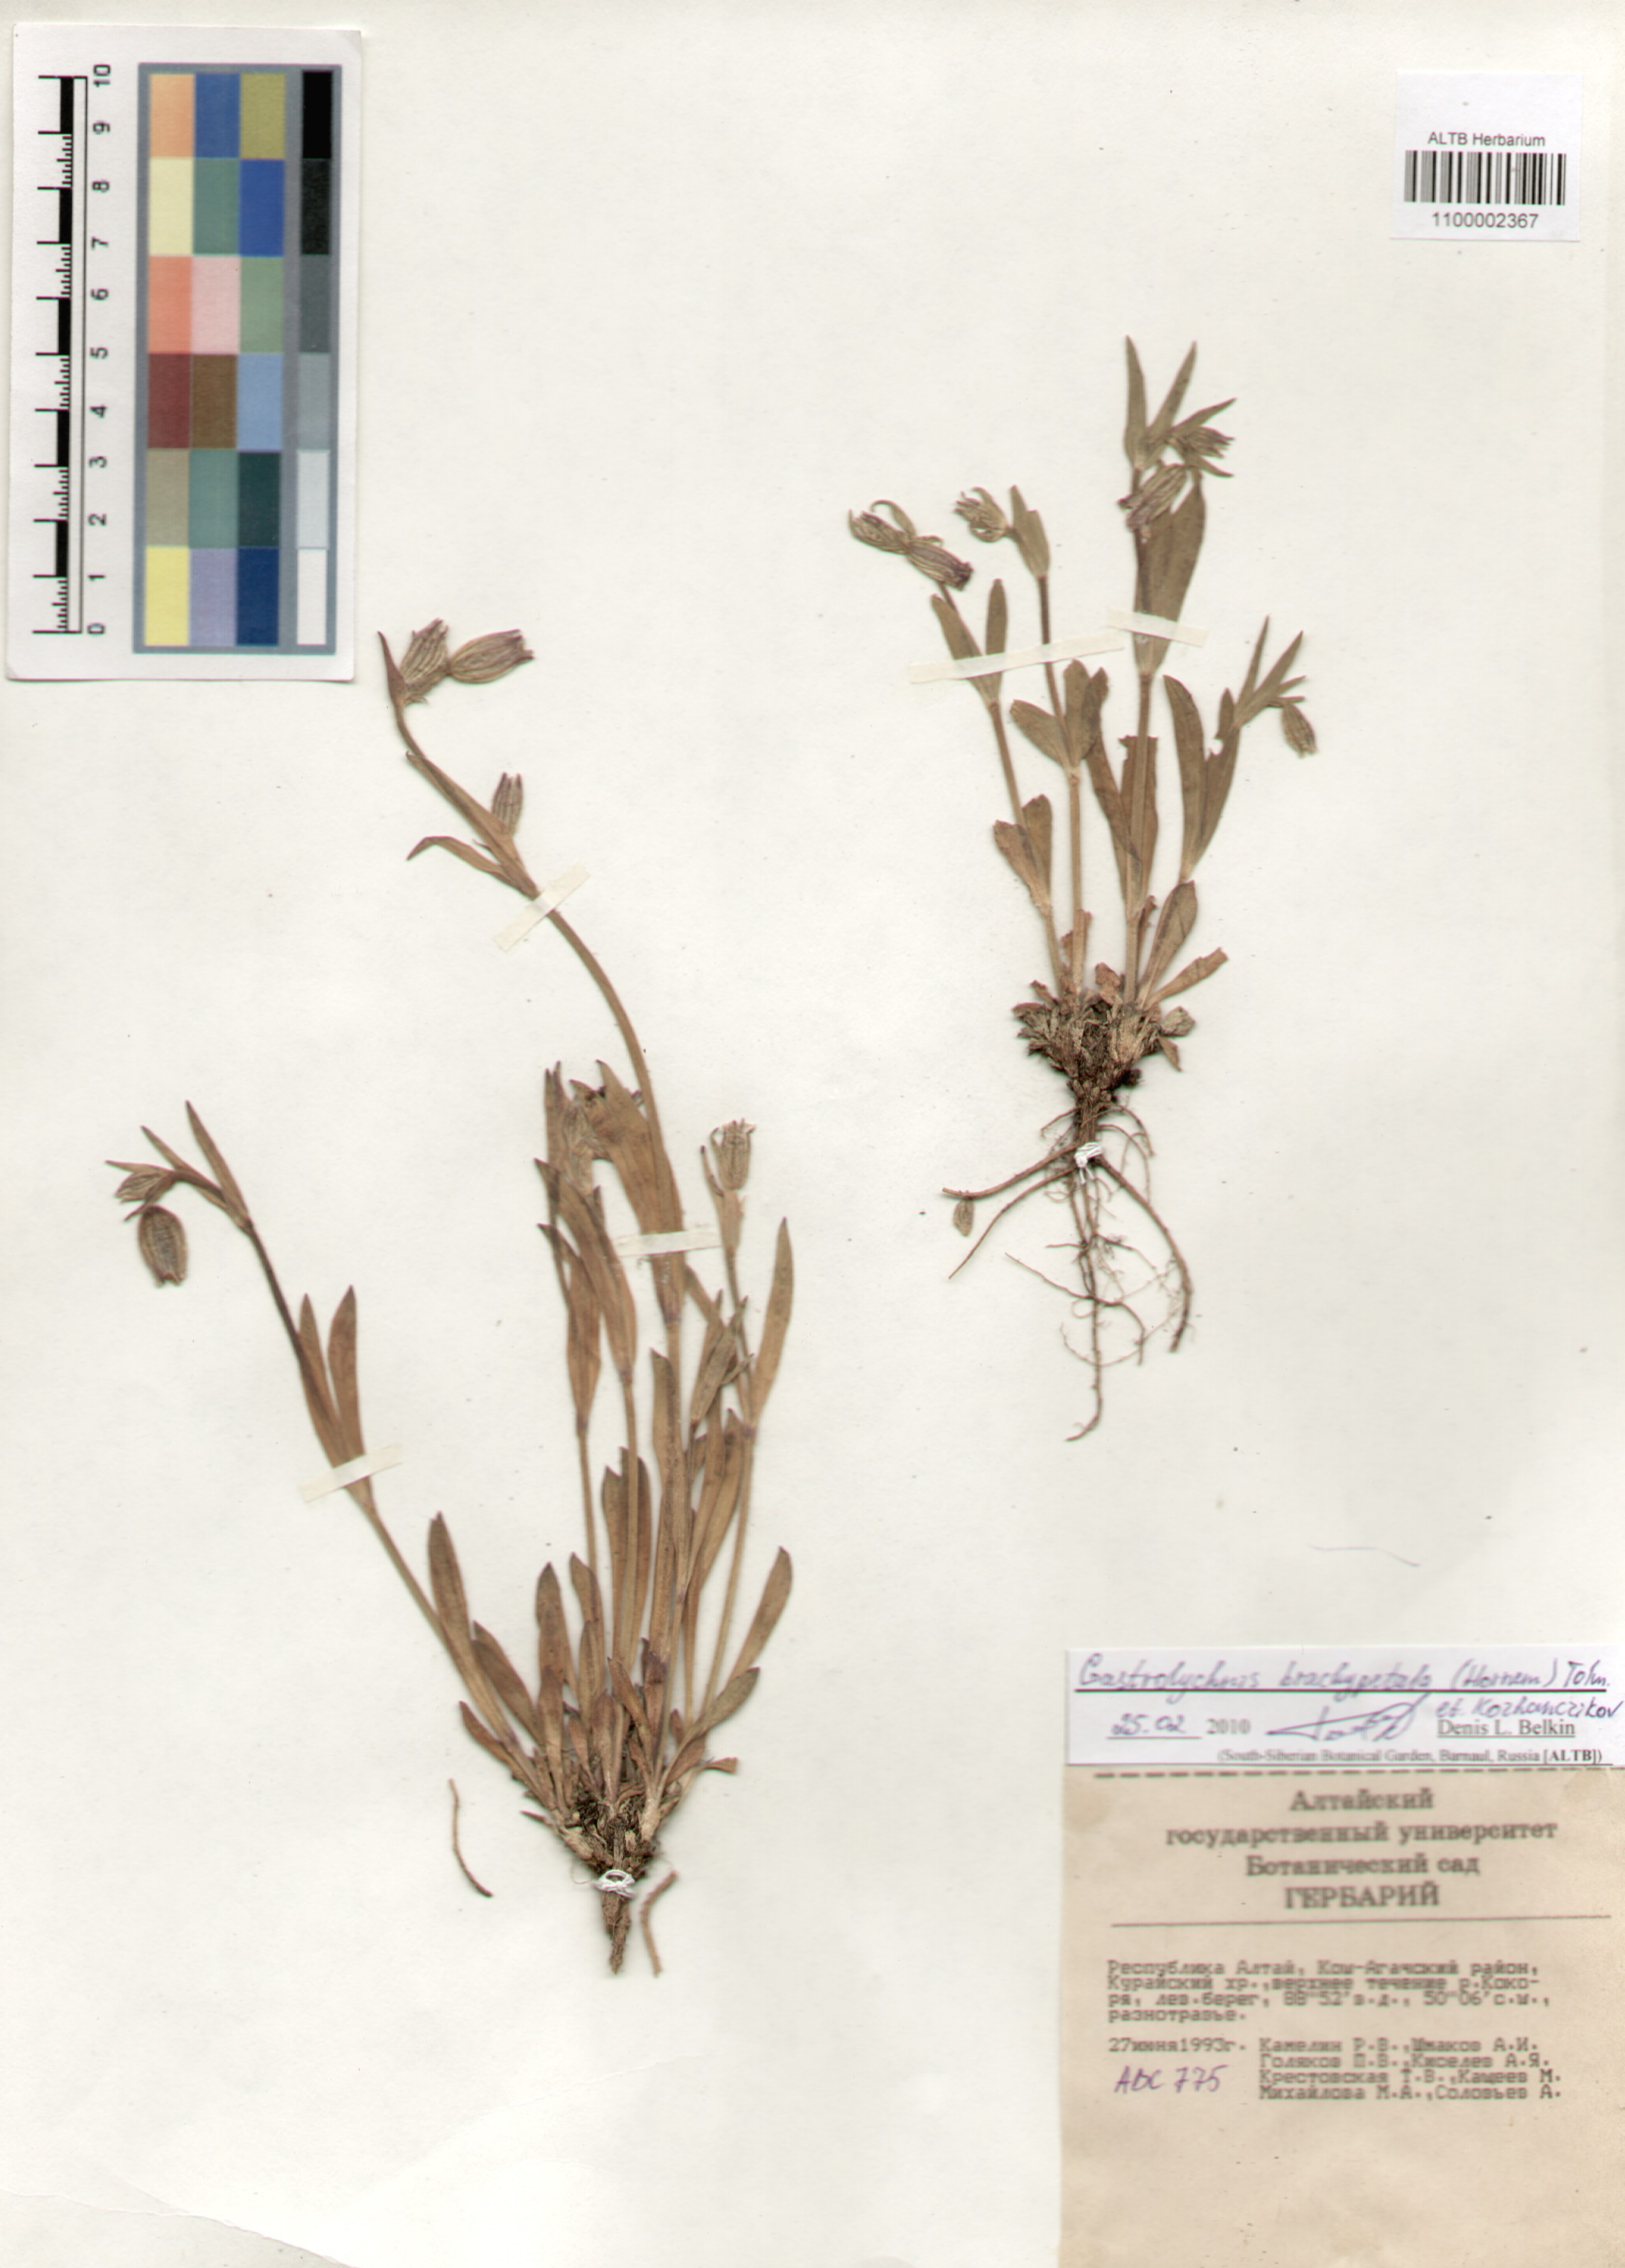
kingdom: Plantae
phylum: Tracheophyta
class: Magnoliopsida
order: Caryophyllales
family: Caryophyllaceae
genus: Silene
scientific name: Silene songarica
